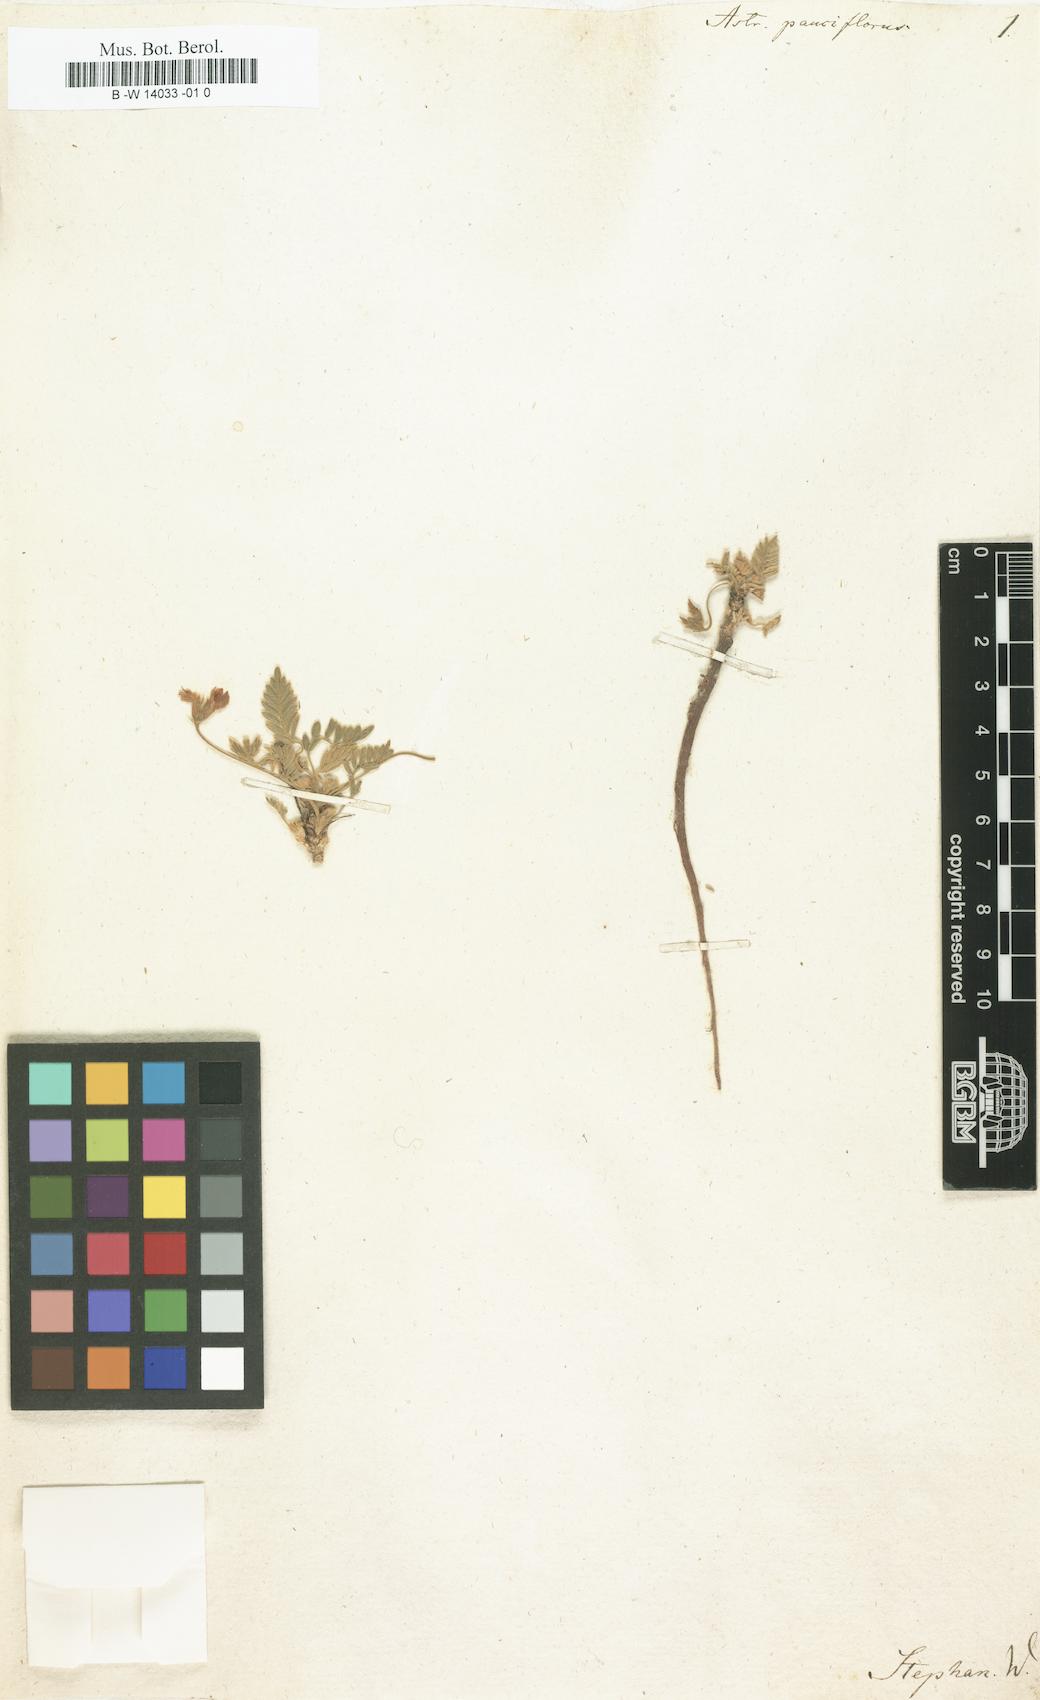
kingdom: Plantae
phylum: Tracheophyta
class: Magnoliopsida
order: Fabales
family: Fabaceae
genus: Astragalus
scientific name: Astragalus leptaleus
